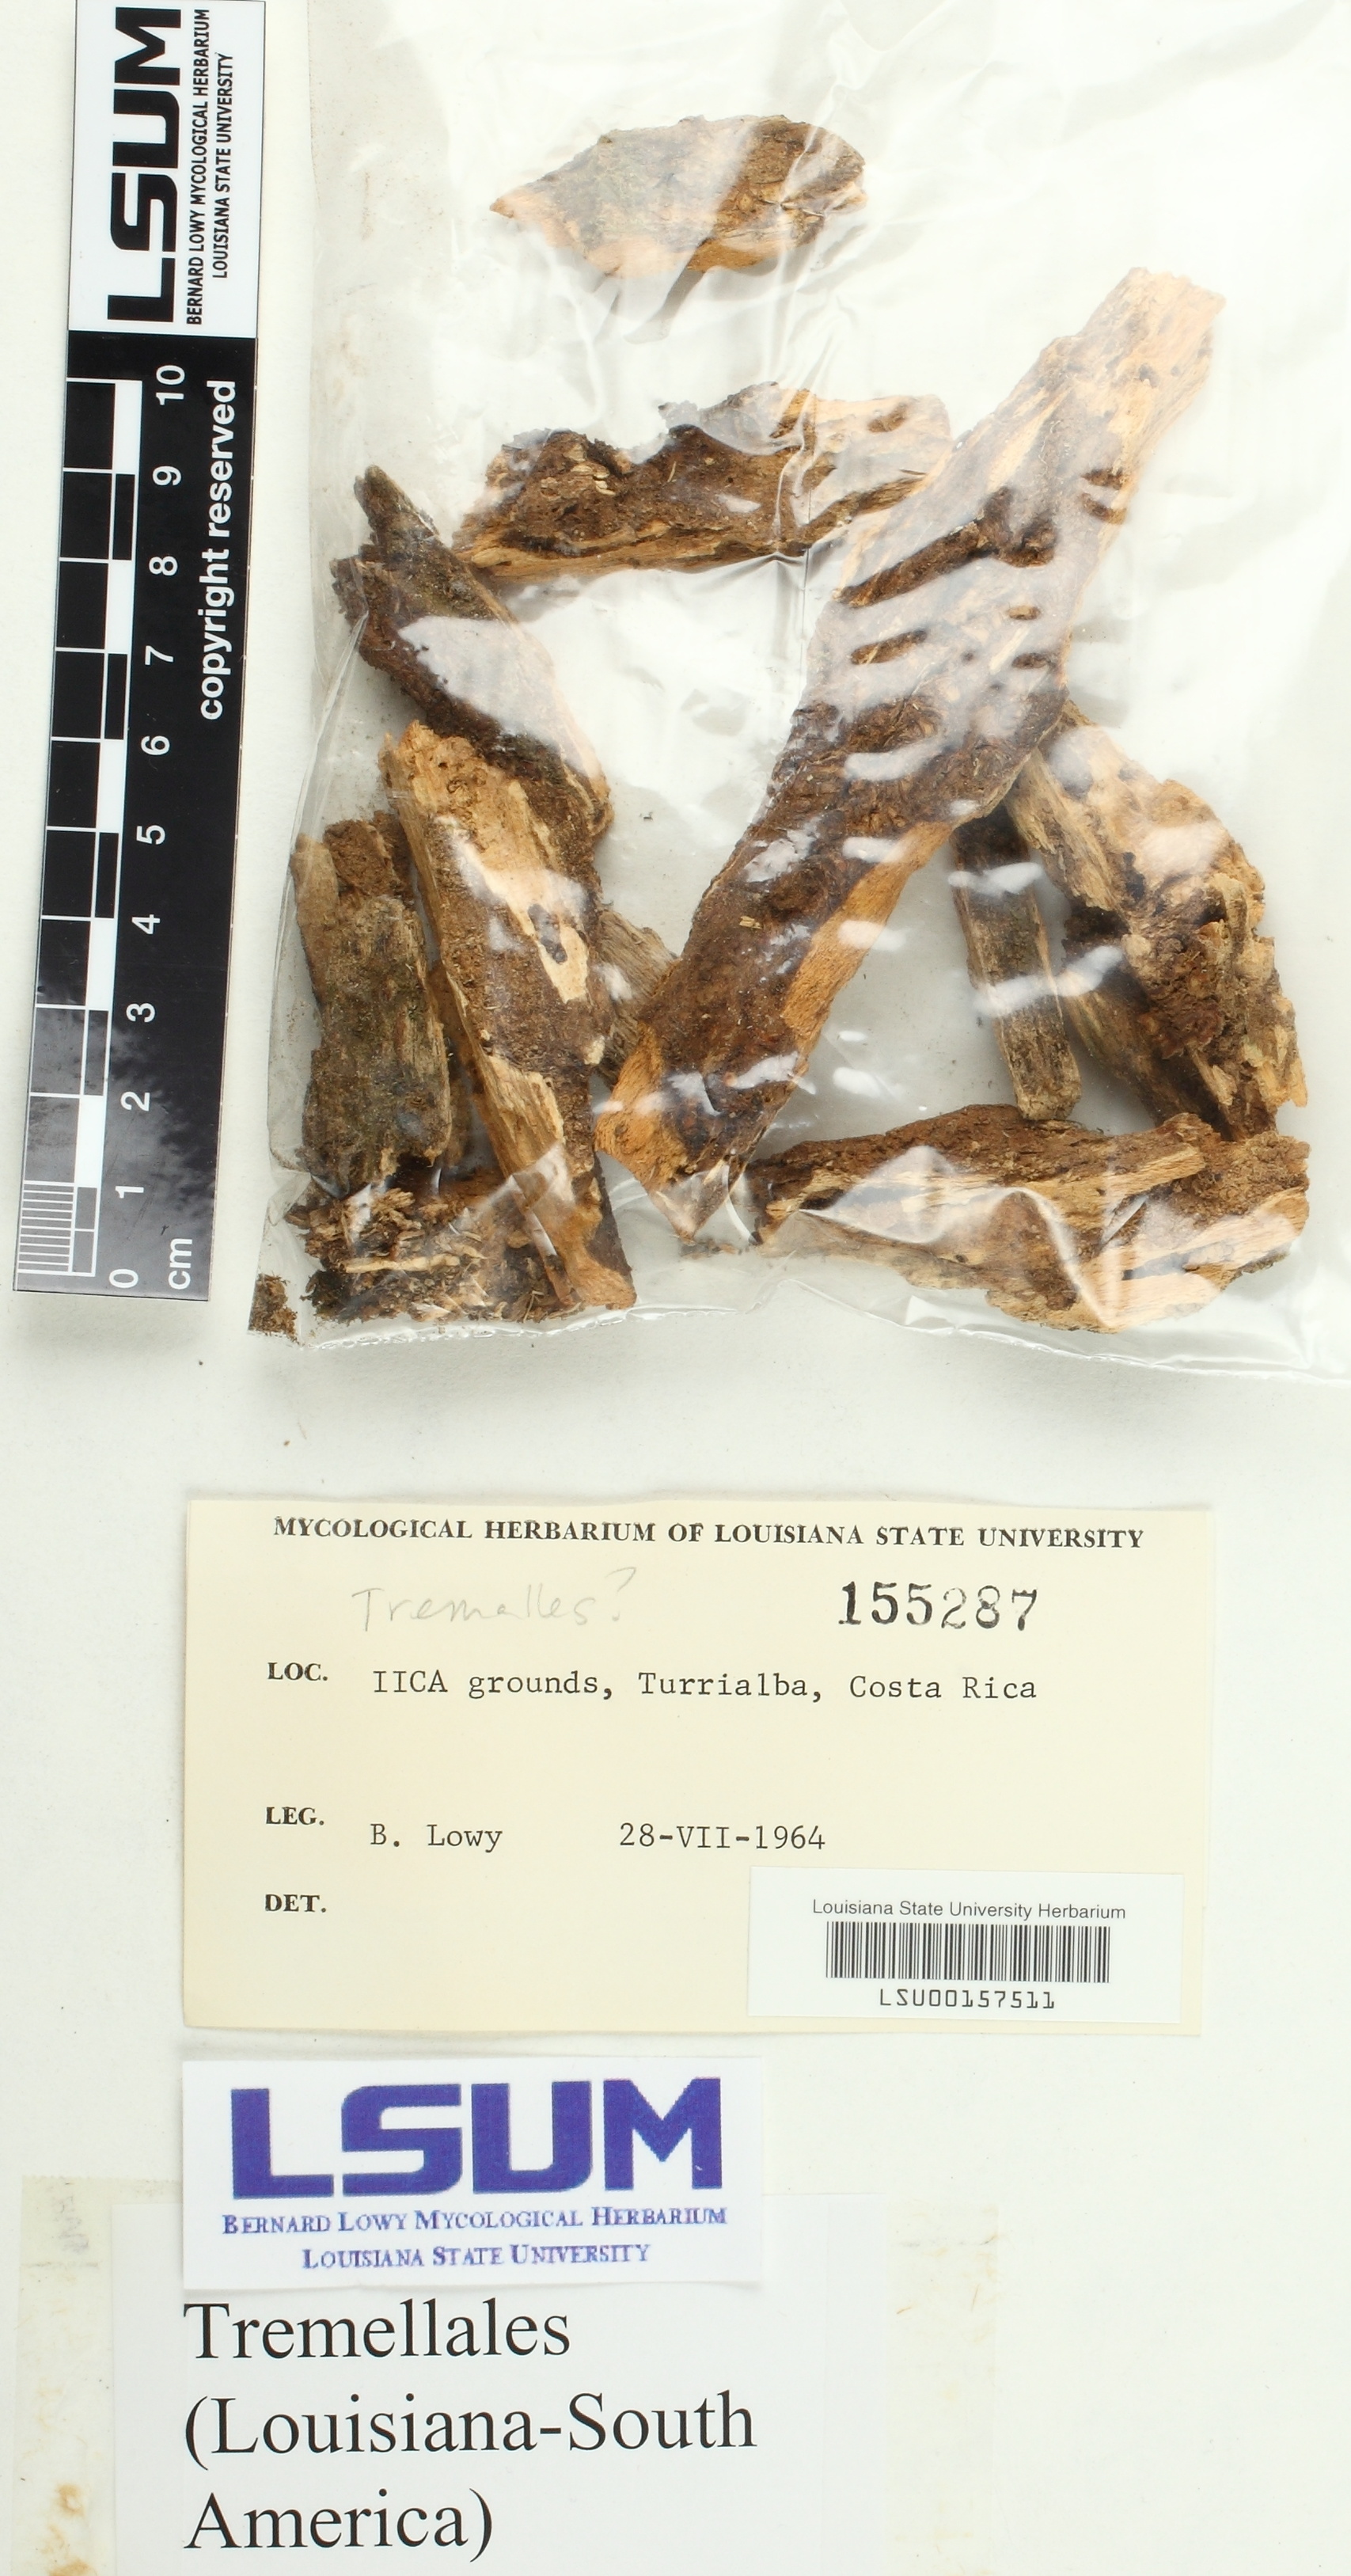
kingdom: Fungi
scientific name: Fungi
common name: Fungi
